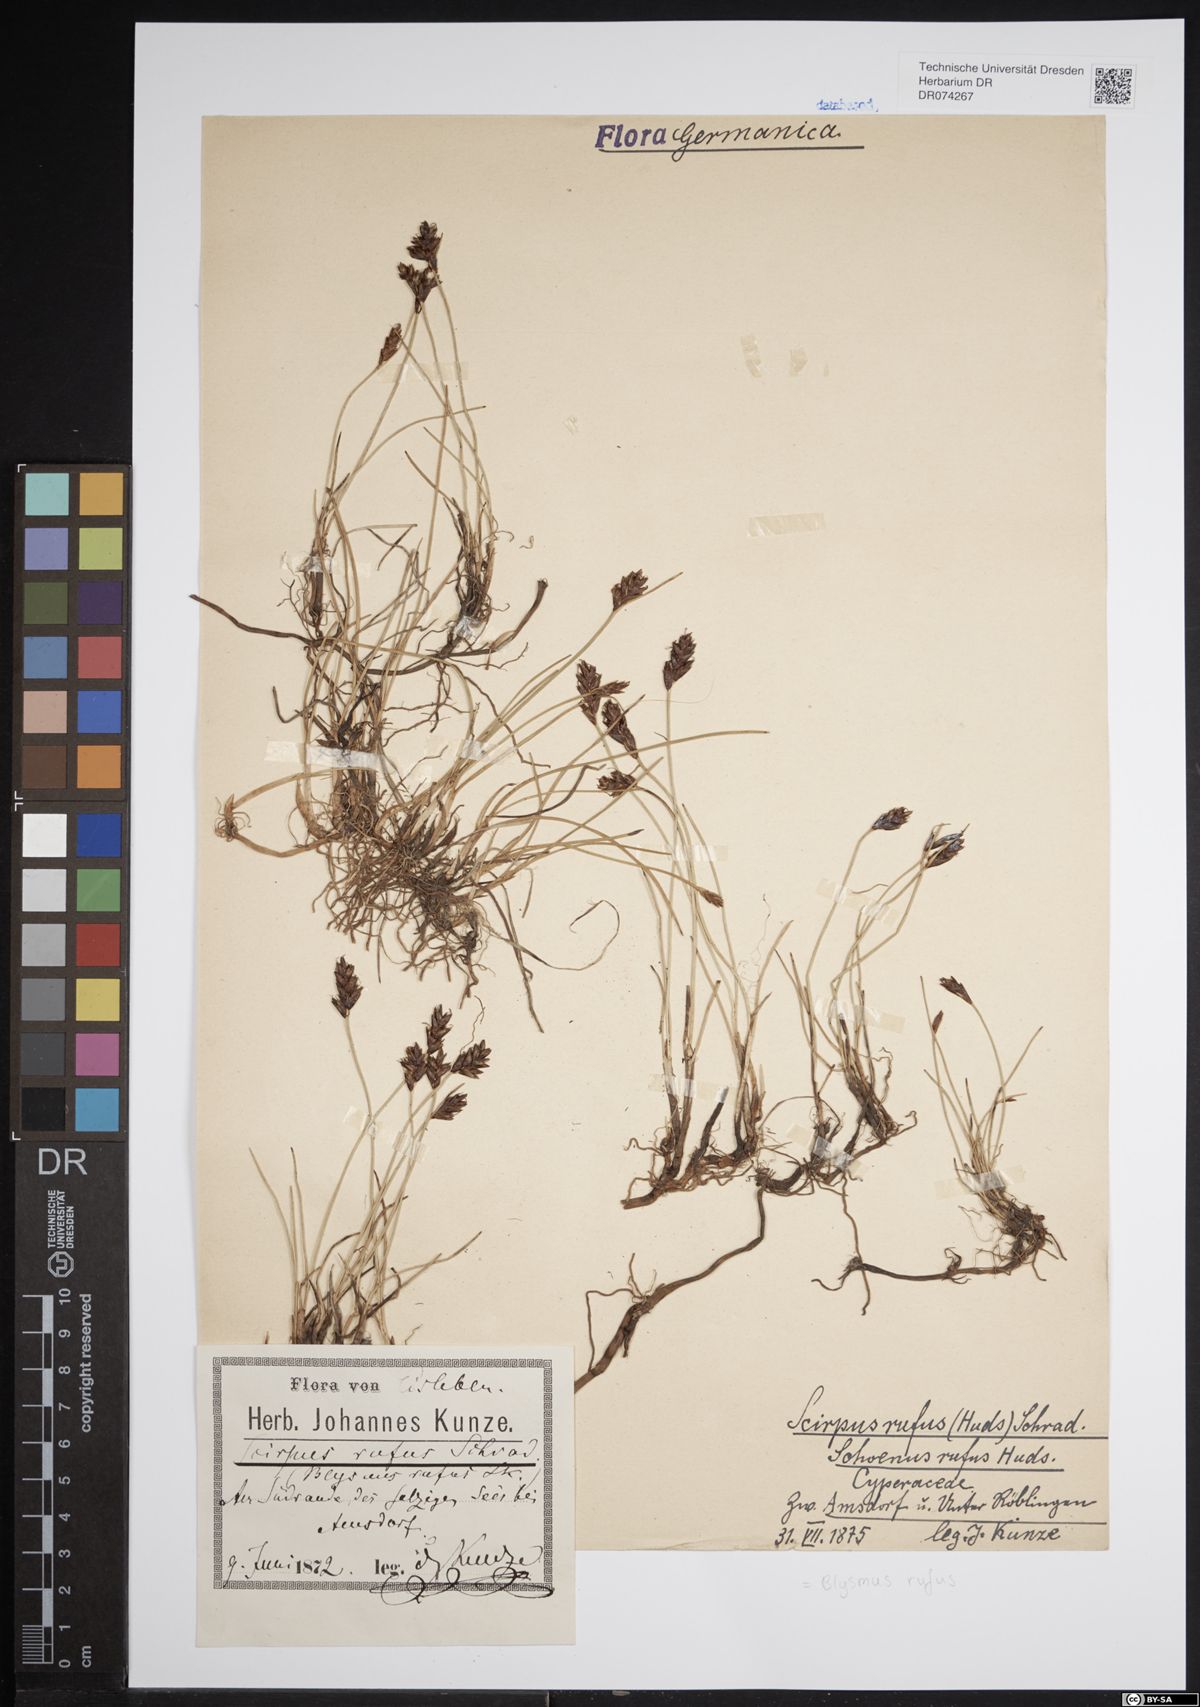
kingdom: Plantae
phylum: Tracheophyta
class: Liliopsida
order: Poales
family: Cyperaceae
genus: Blysmus
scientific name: Blysmus rufus
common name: Saltmarsh flat-sedge
